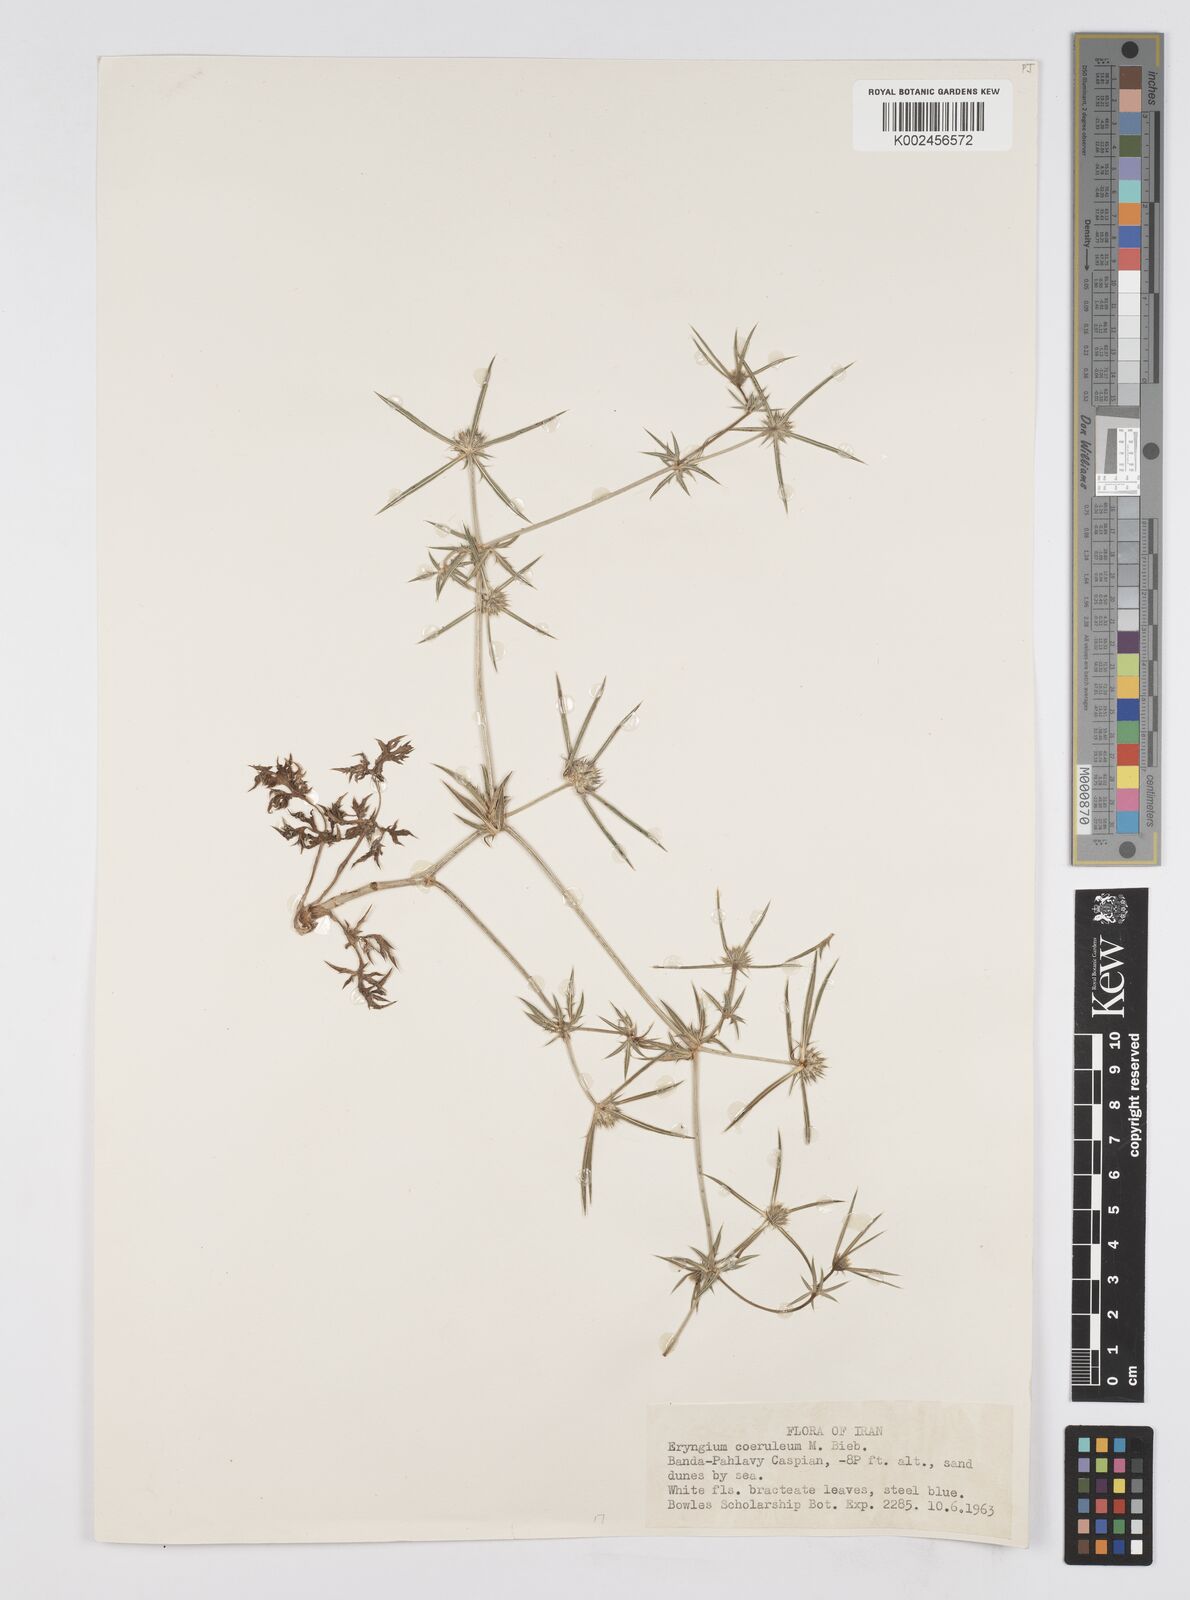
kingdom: Plantae
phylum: Tracheophyta
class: Magnoliopsida
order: Apiales
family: Apiaceae
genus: Eryngium
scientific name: Eryngium caeruleum
